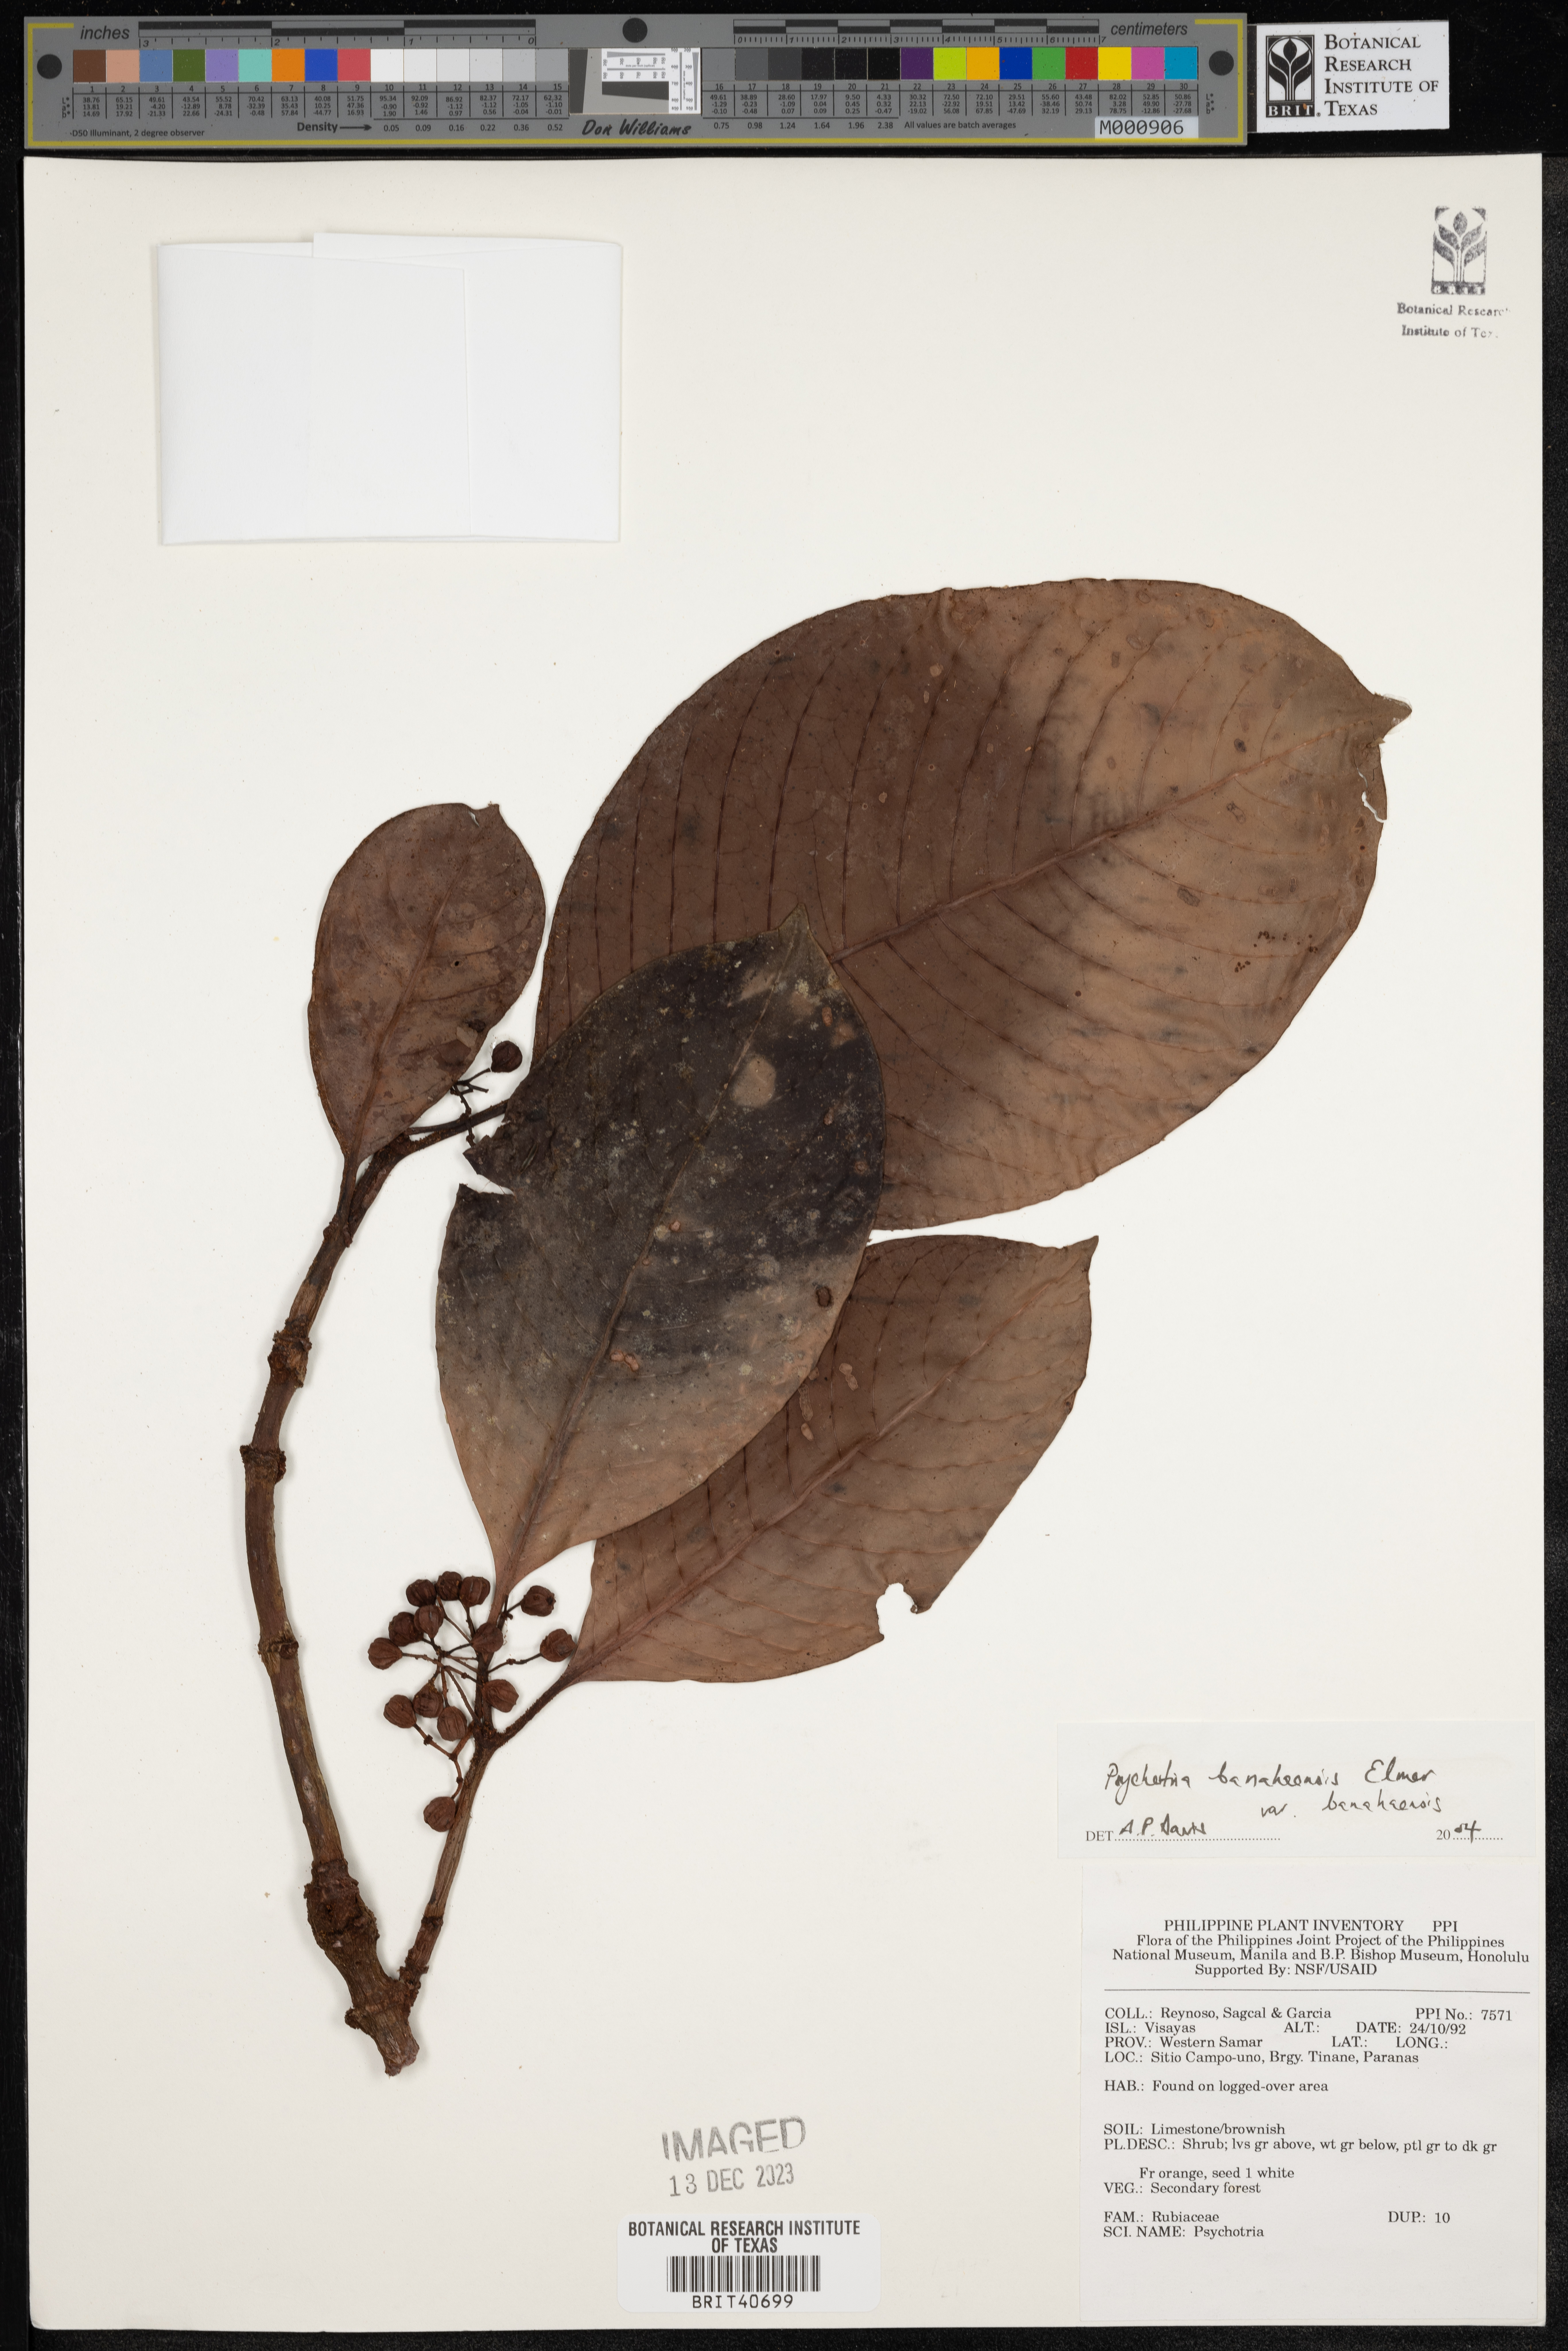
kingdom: Plantae
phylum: Tracheophyta
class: Magnoliopsida
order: Gentianales
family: Rubiaceae
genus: Psychotria
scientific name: Psychotria banahaensis
